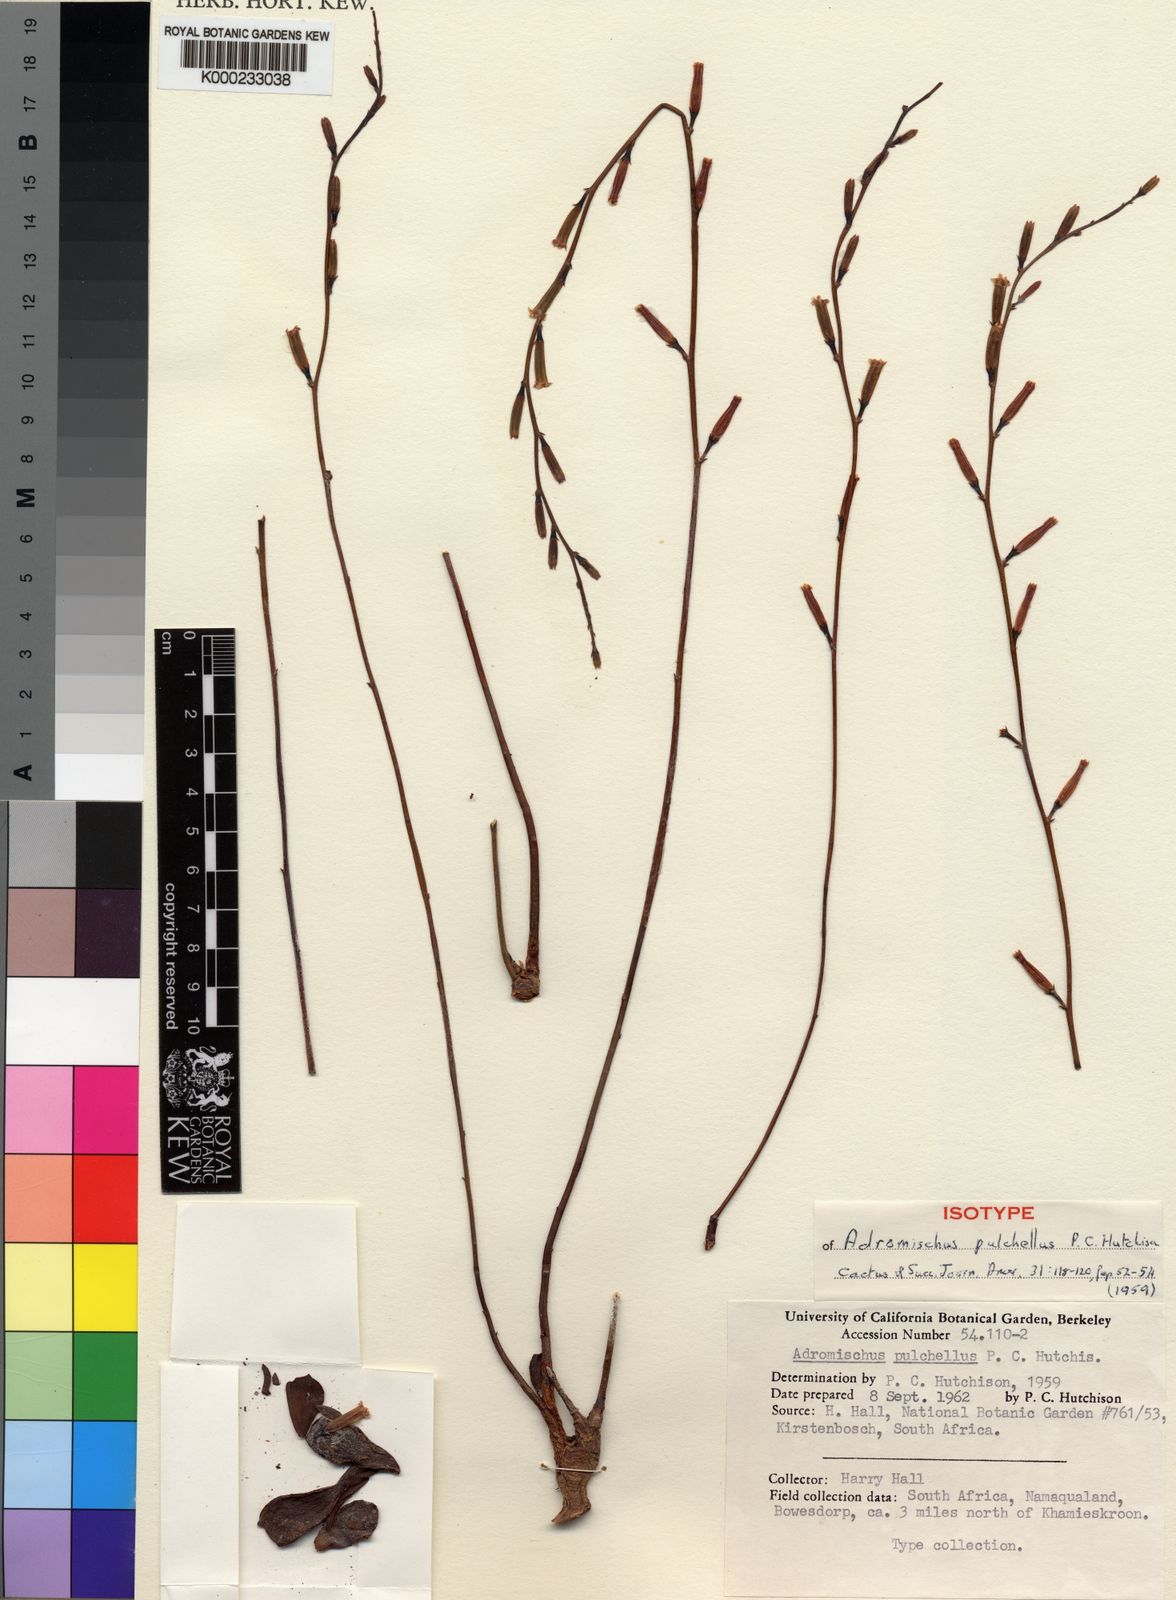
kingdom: Plantae
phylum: Tracheophyta
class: Magnoliopsida
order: Saxifragales
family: Crassulaceae
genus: Adromischus
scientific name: Adromischus
